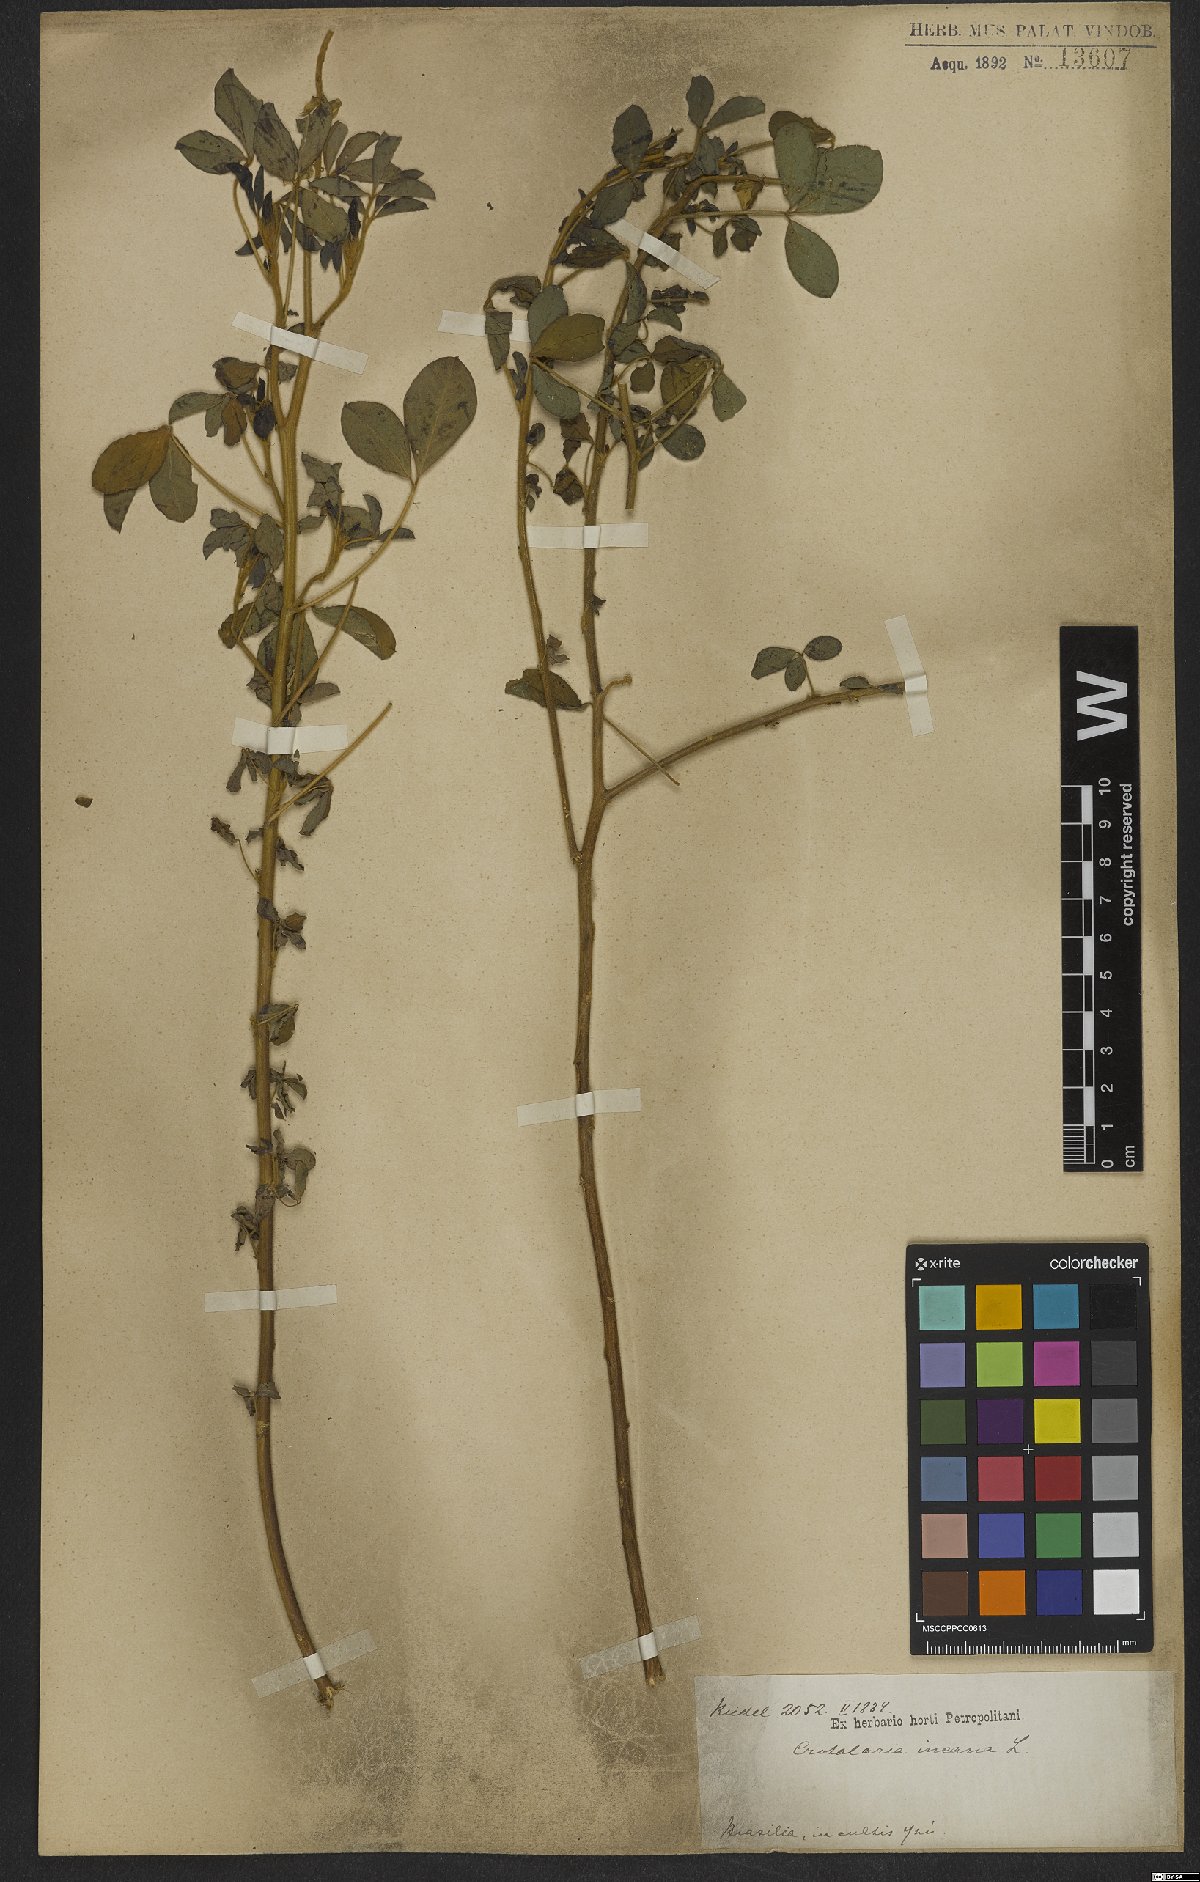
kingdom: Plantae
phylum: Tracheophyta
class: Magnoliopsida
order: Fabales
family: Fabaceae
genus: Crotalaria
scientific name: Crotalaria incana
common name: Shakeshake
